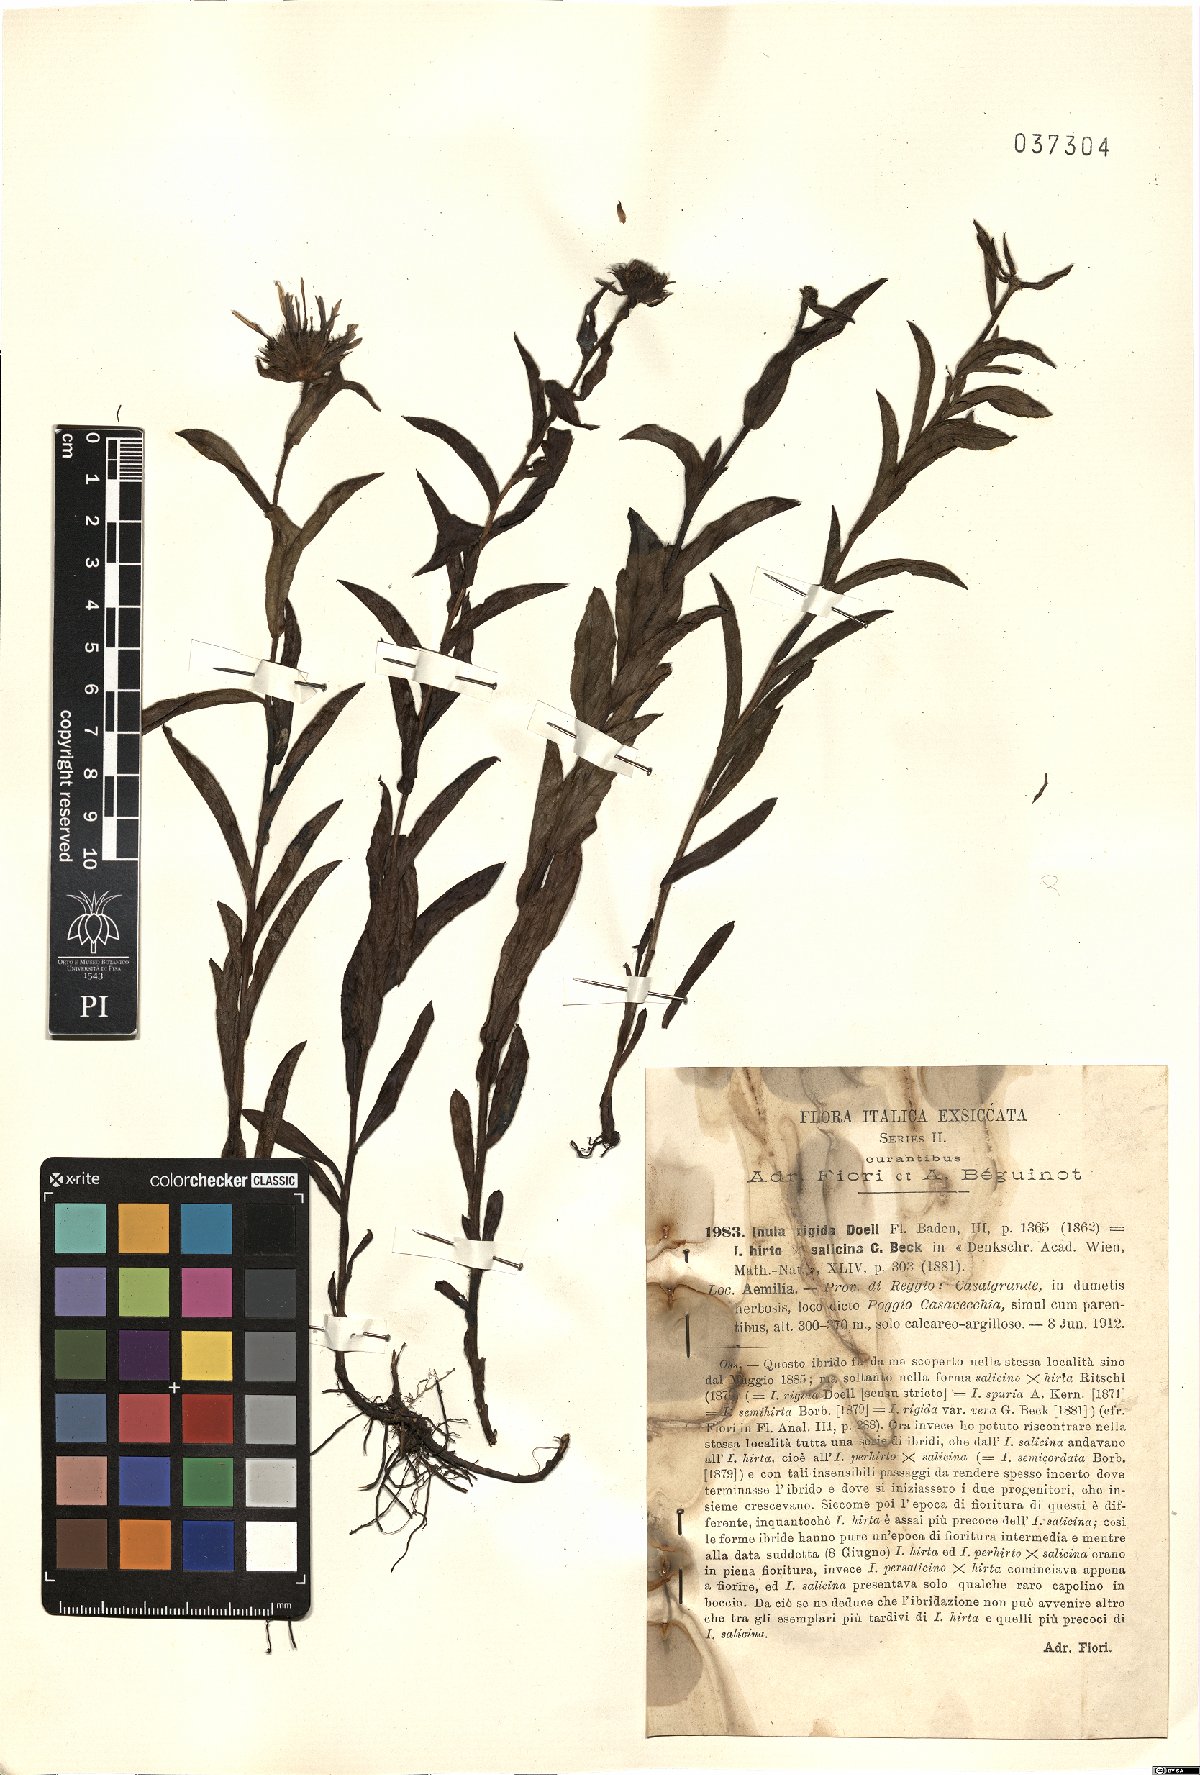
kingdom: Plantae
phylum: Tracheophyta
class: Magnoliopsida
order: Asterales
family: Asteraceae
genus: Pentanema
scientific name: Pentanema doellianum
